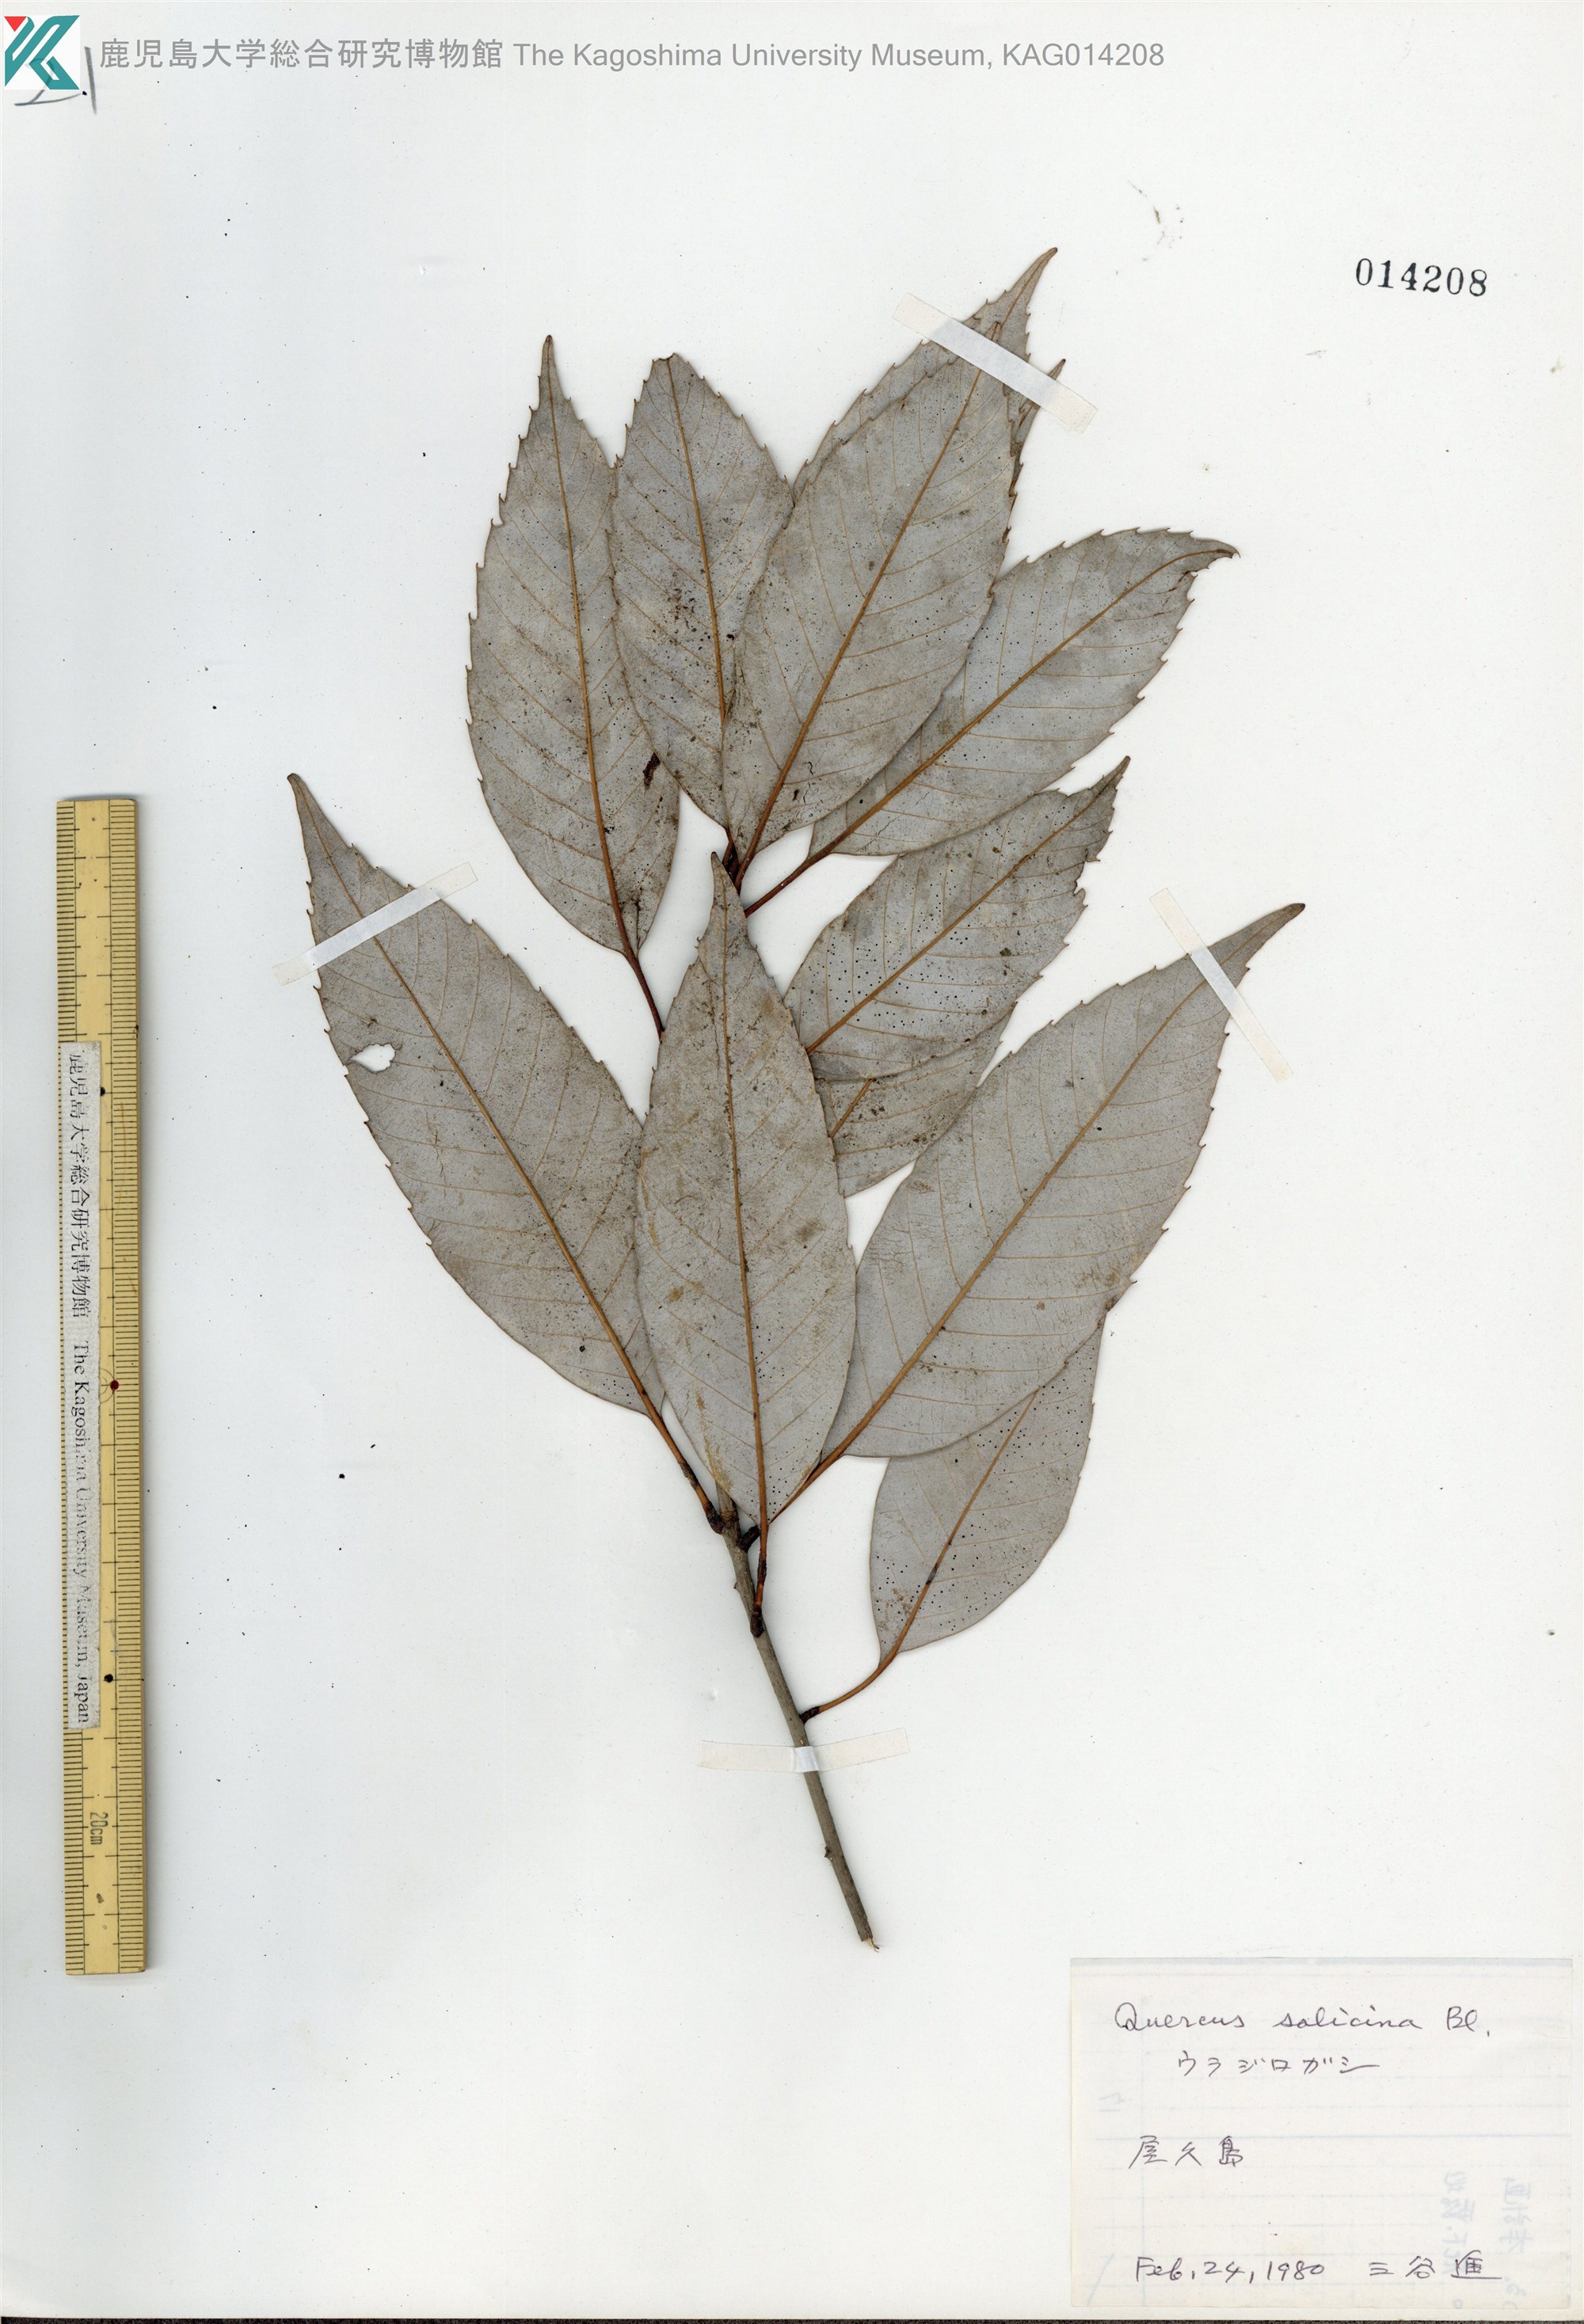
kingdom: Plantae
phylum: Tracheophyta
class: Magnoliopsida
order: Fagales
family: Fagaceae
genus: Quercus
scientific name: Quercus salicina
